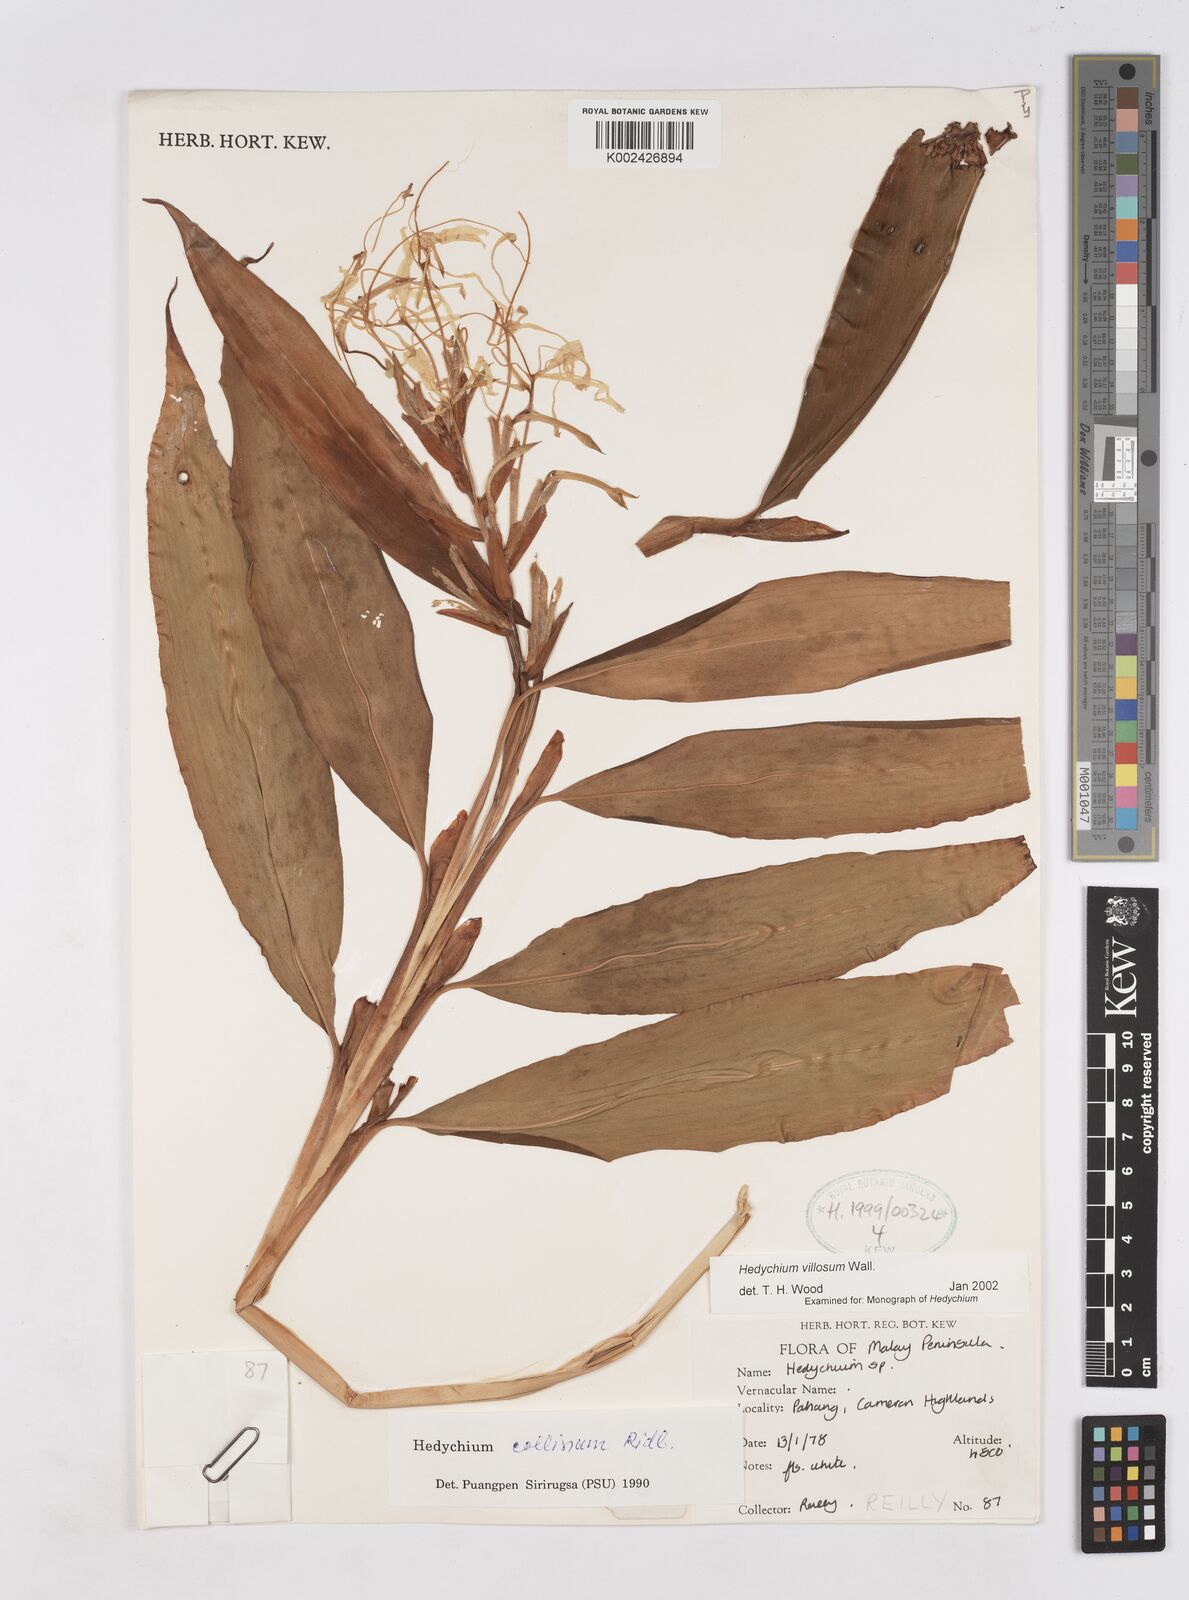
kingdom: Plantae
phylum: Tracheophyta
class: Liliopsida
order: Zingiberales
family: Zingiberaceae
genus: Hedychium
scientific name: Hedychium villosum
